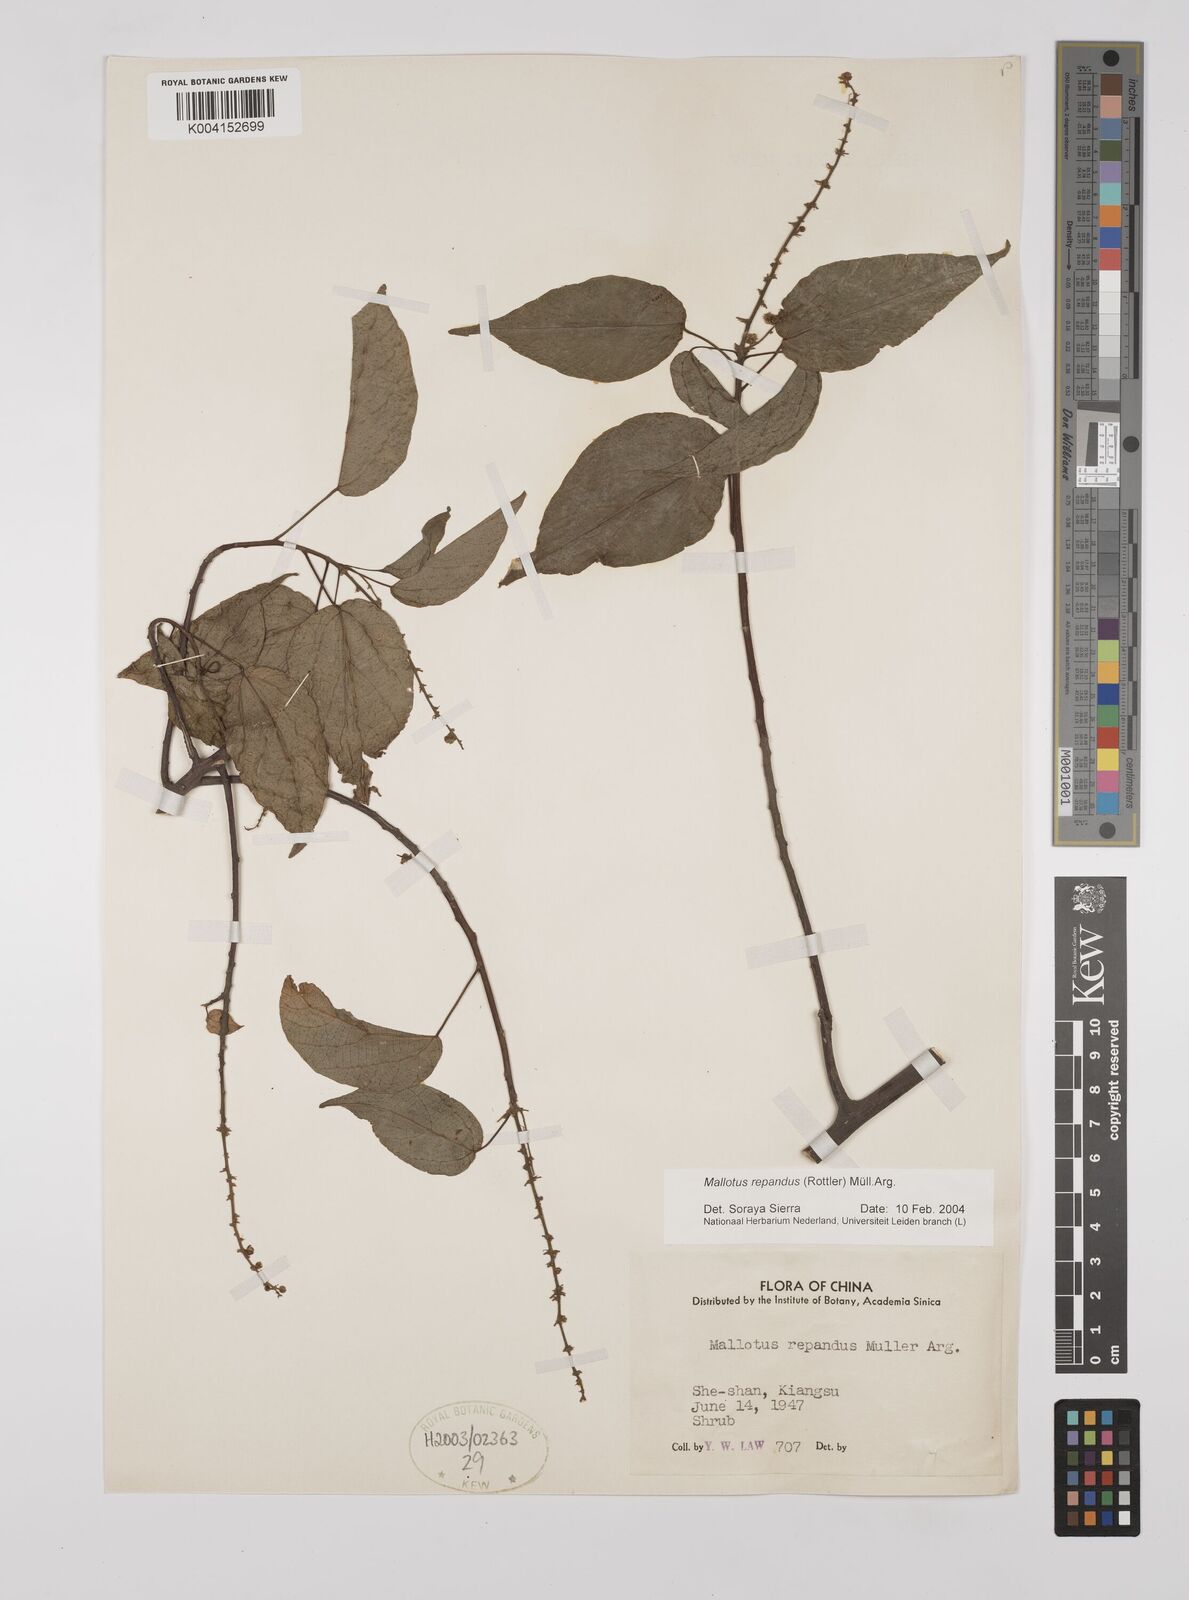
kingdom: Plantae
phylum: Tracheophyta
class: Magnoliopsida
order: Malpighiales
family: Euphorbiaceae
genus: Mallotus
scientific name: Mallotus repandus
